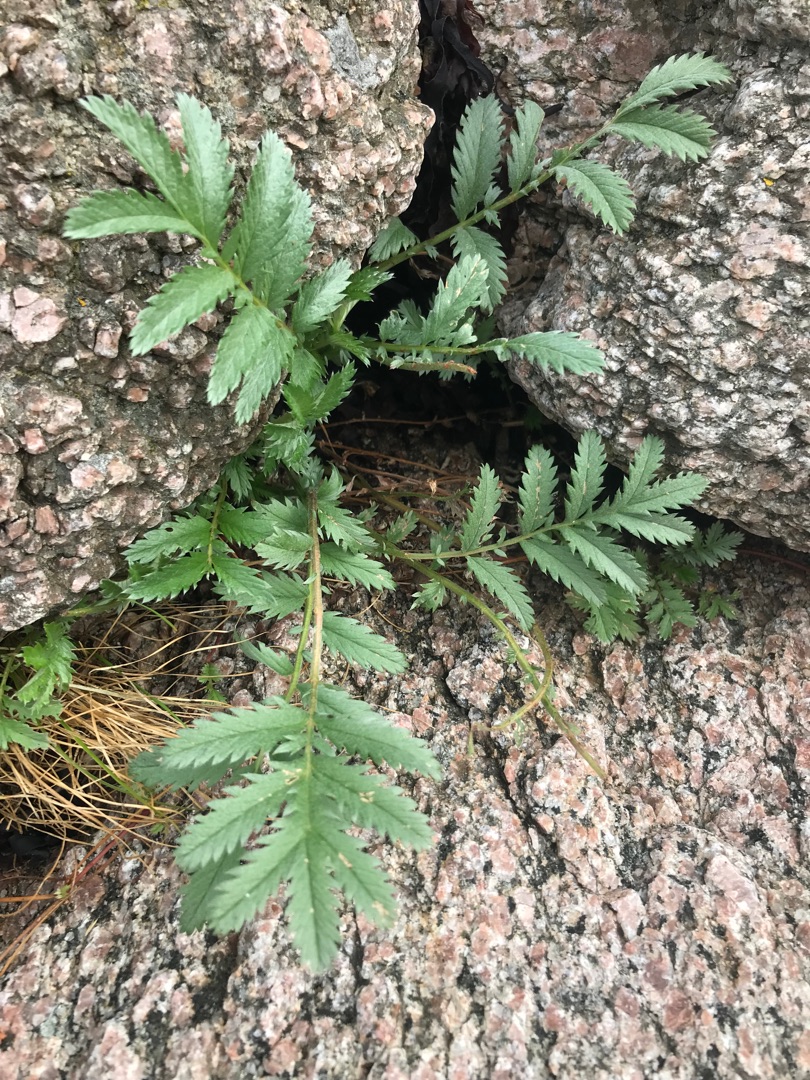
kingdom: Plantae
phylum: Tracheophyta
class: Magnoliopsida
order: Rosales
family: Rosaceae
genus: Argentina
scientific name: Argentina anserina
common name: Gåsepotentil
